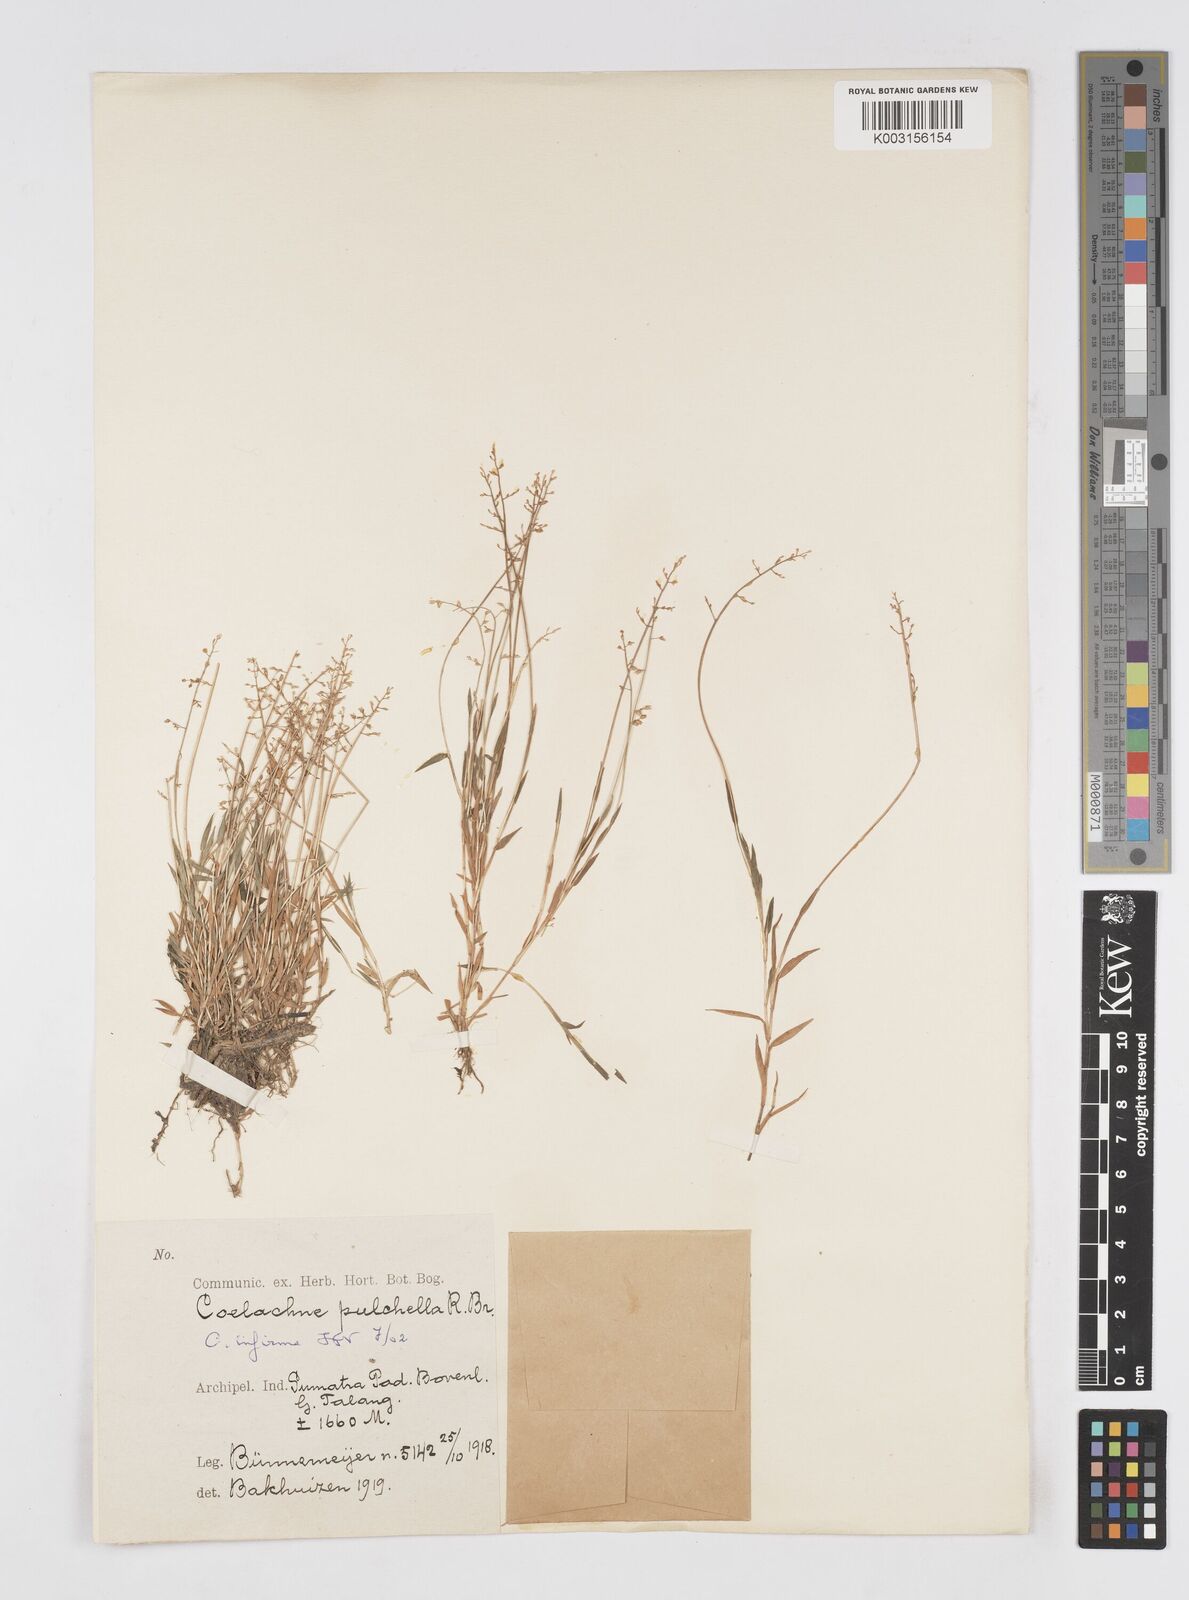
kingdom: Plantae
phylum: Tracheophyta
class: Liliopsida
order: Poales
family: Poaceae
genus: Coelachne
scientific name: Coelachne infirma
